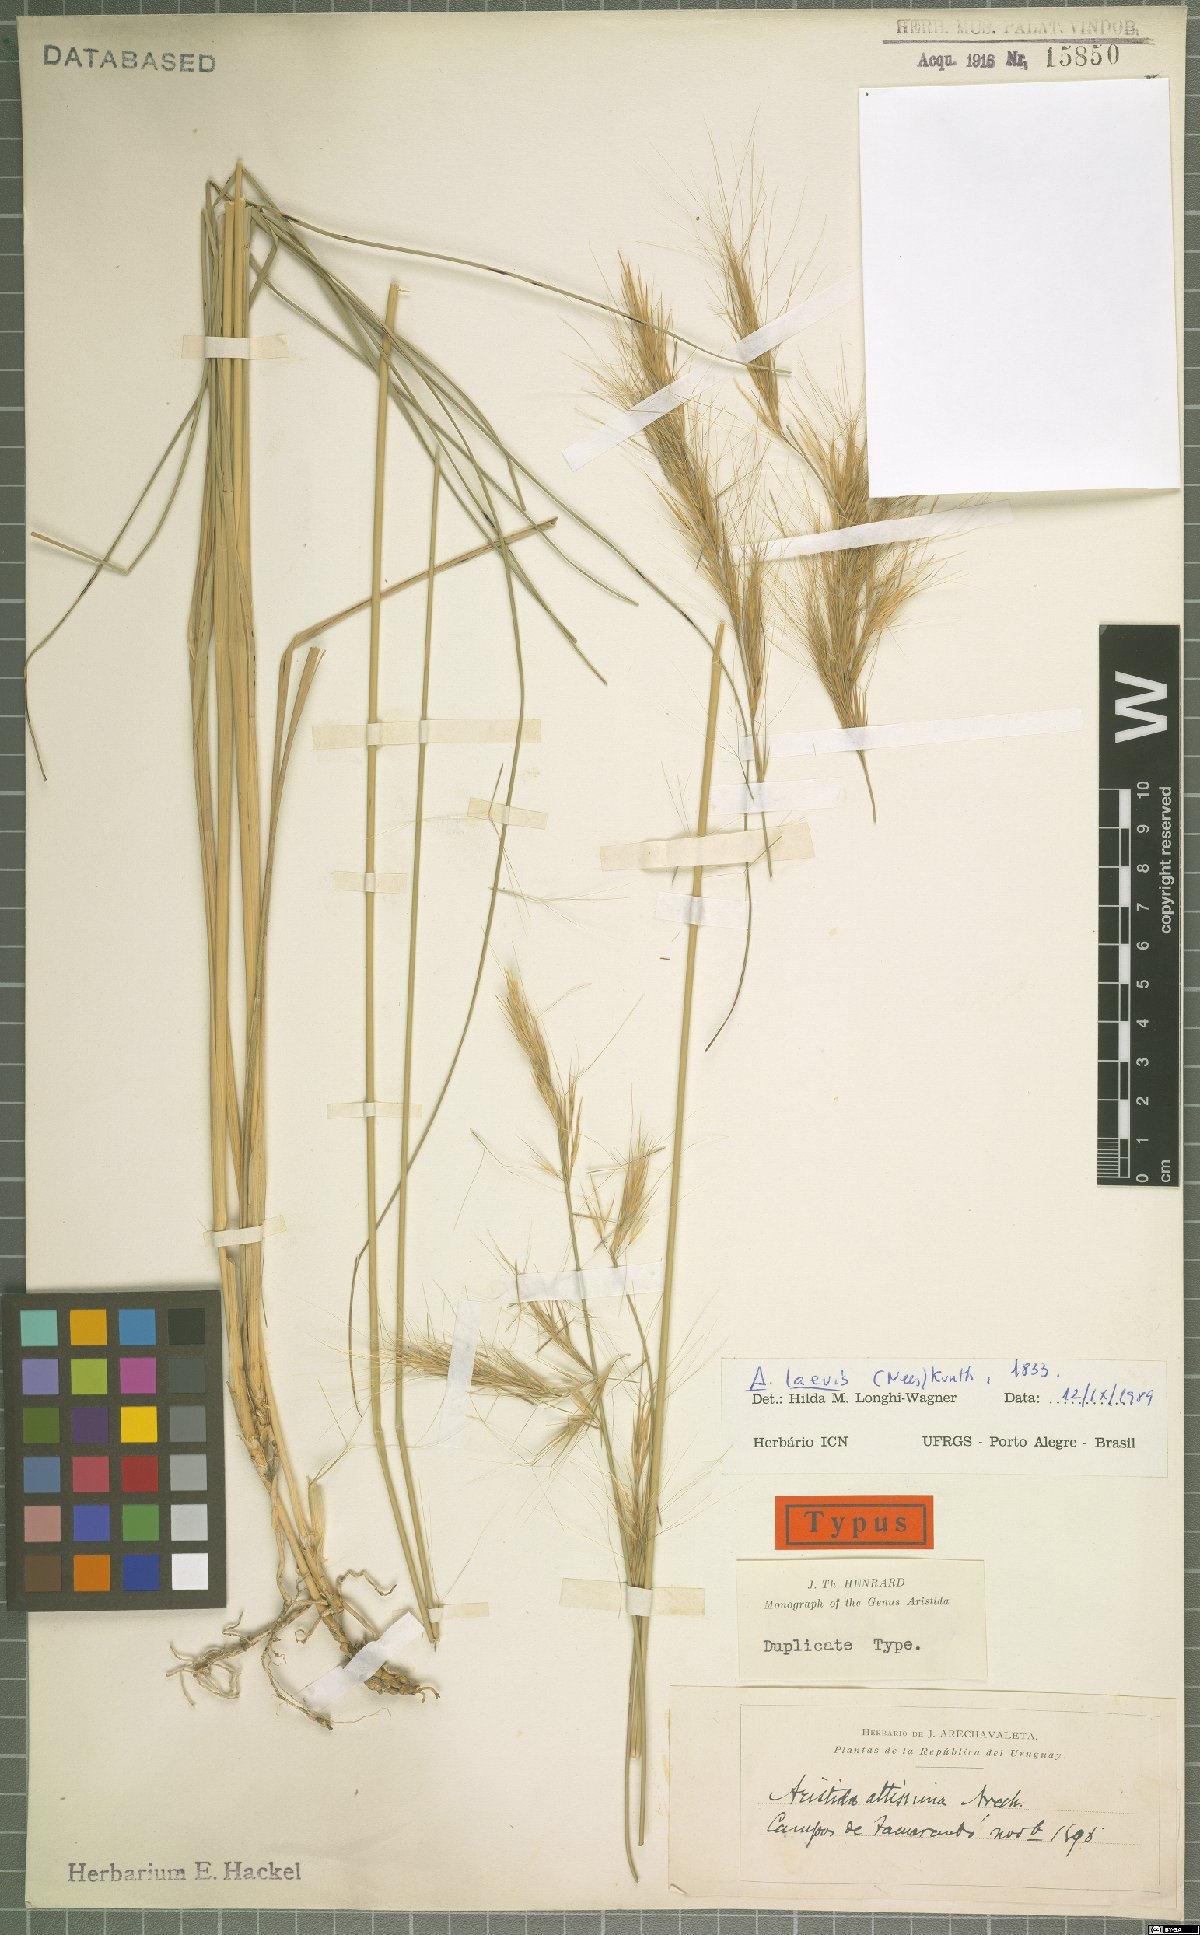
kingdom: Plantae
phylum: Tracheophyta
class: Liliopsida
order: Poales
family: Poaceae
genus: Aristida
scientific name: Aristida laevis
